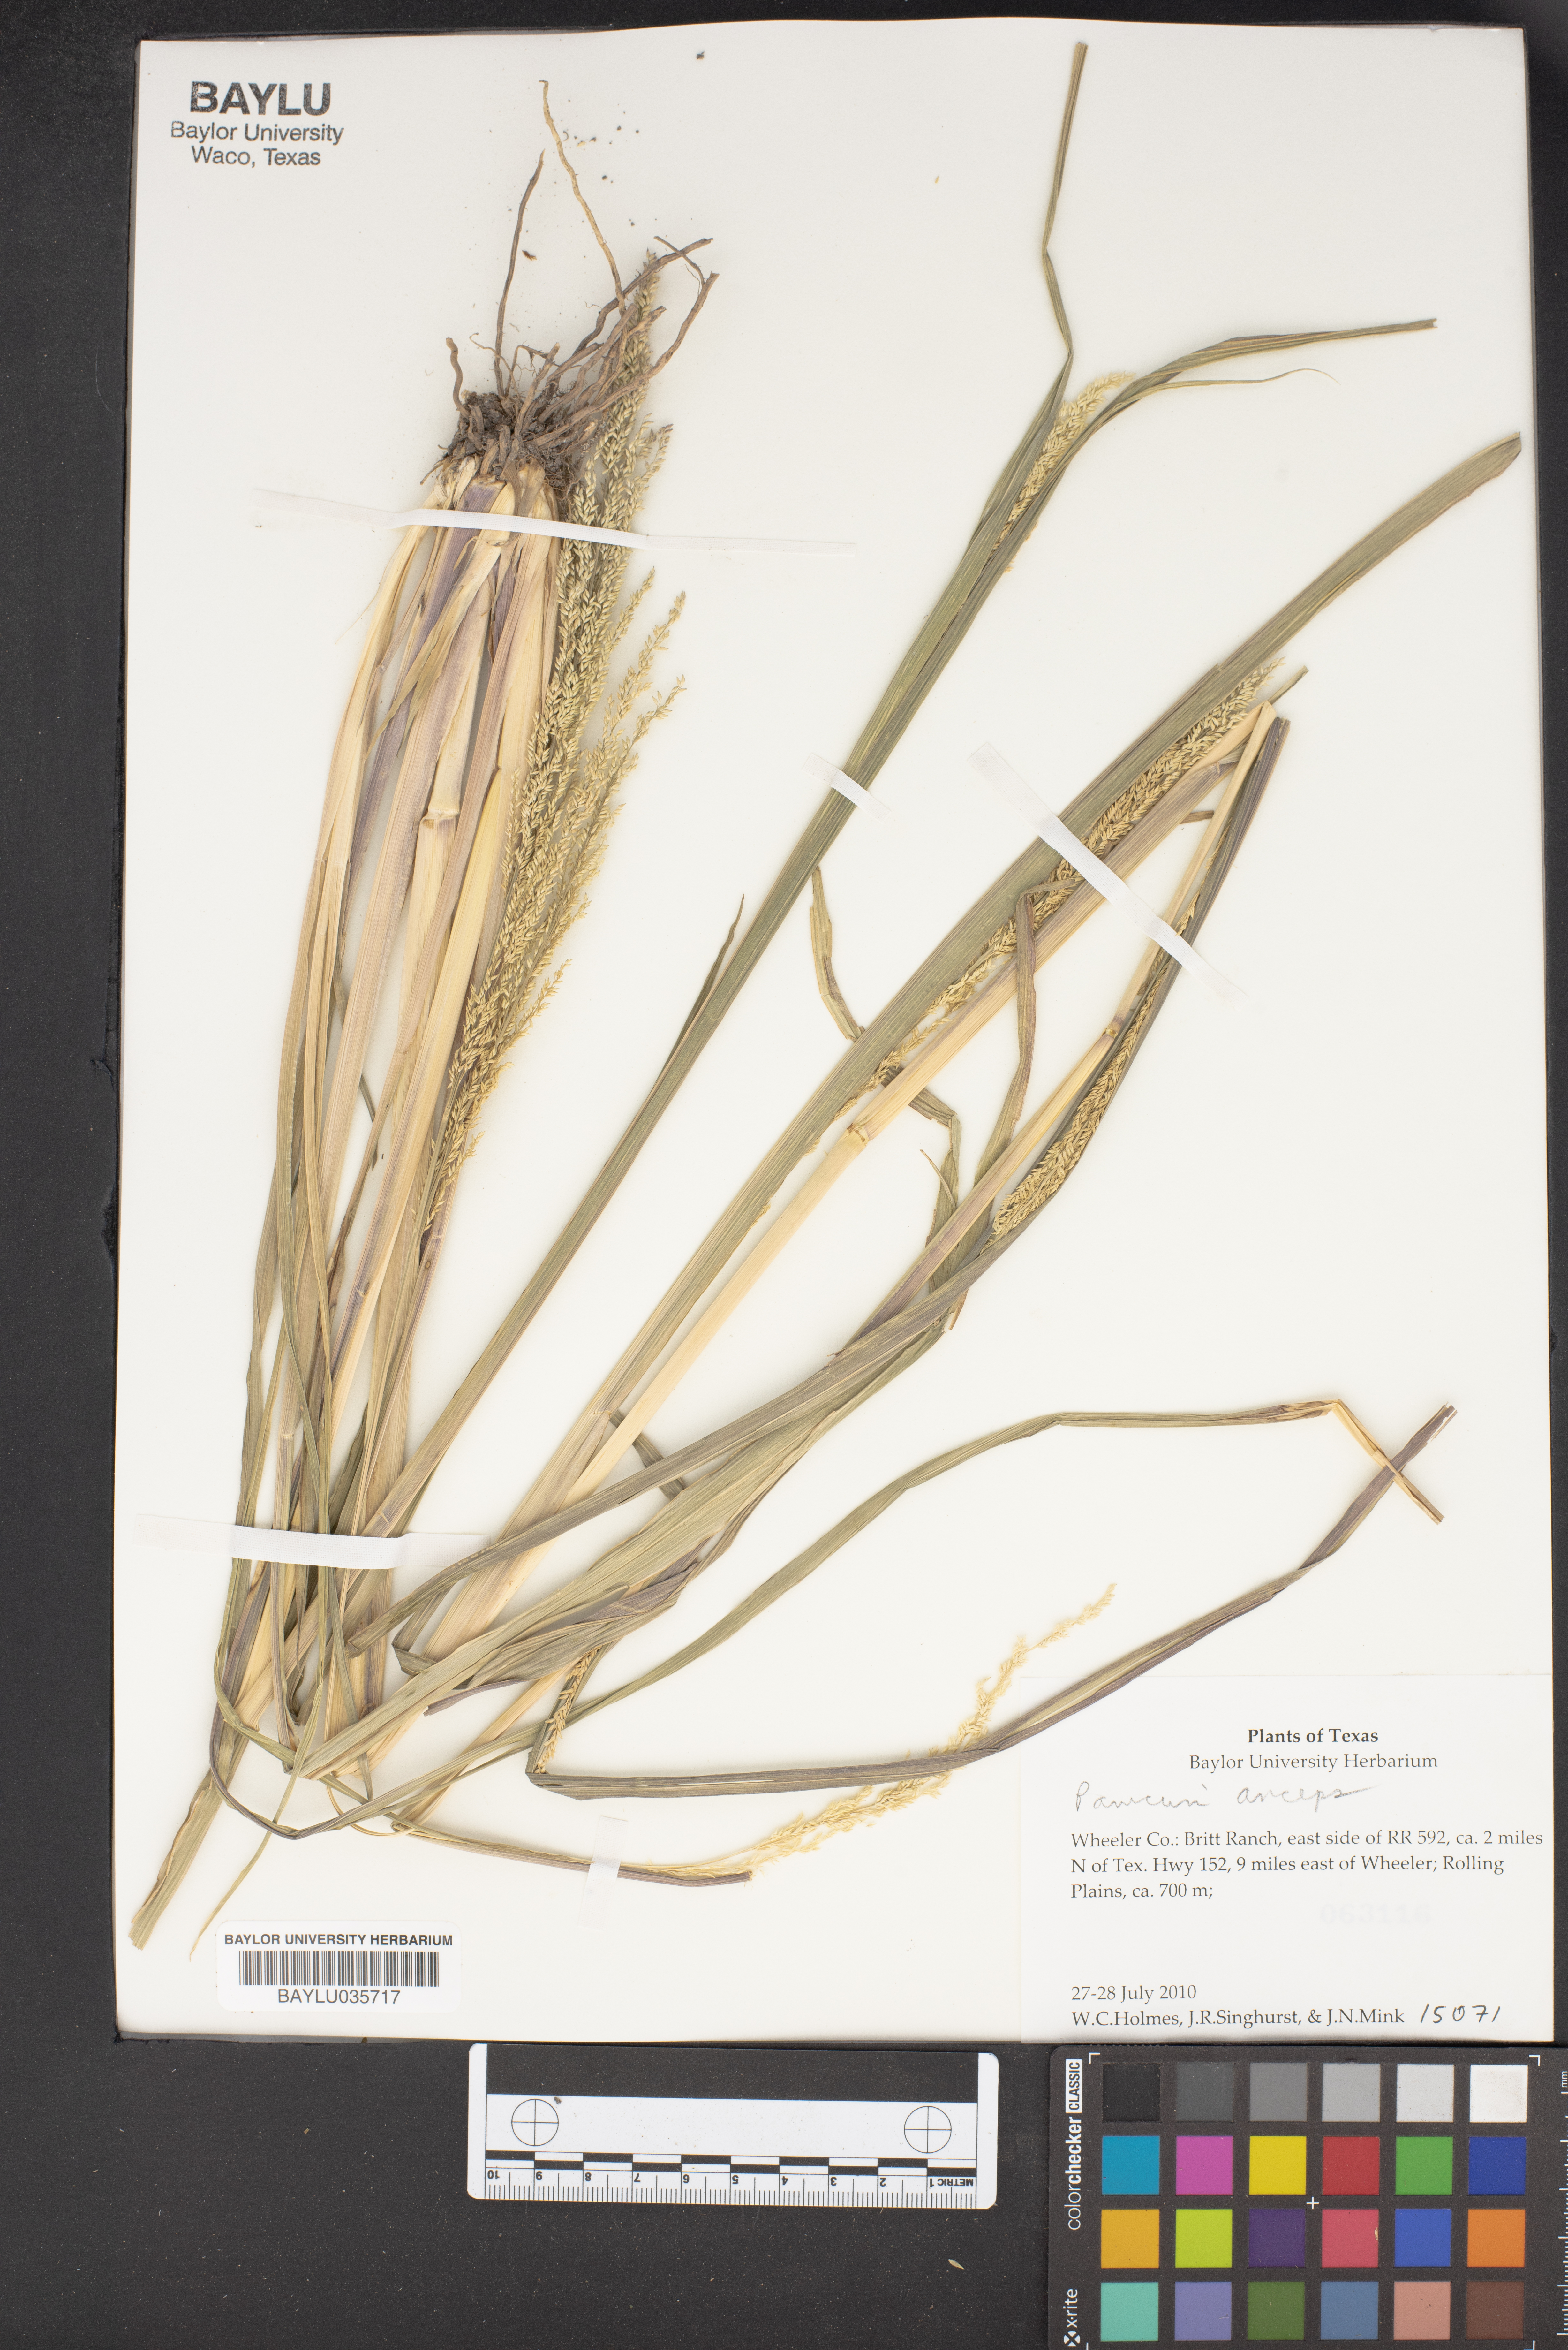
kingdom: Plantae
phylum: Tracheophyta
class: Liliopsida
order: Poales
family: Poaceae
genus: Coleataenia
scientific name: Coleataenia anceps
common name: Beaked panic grass
